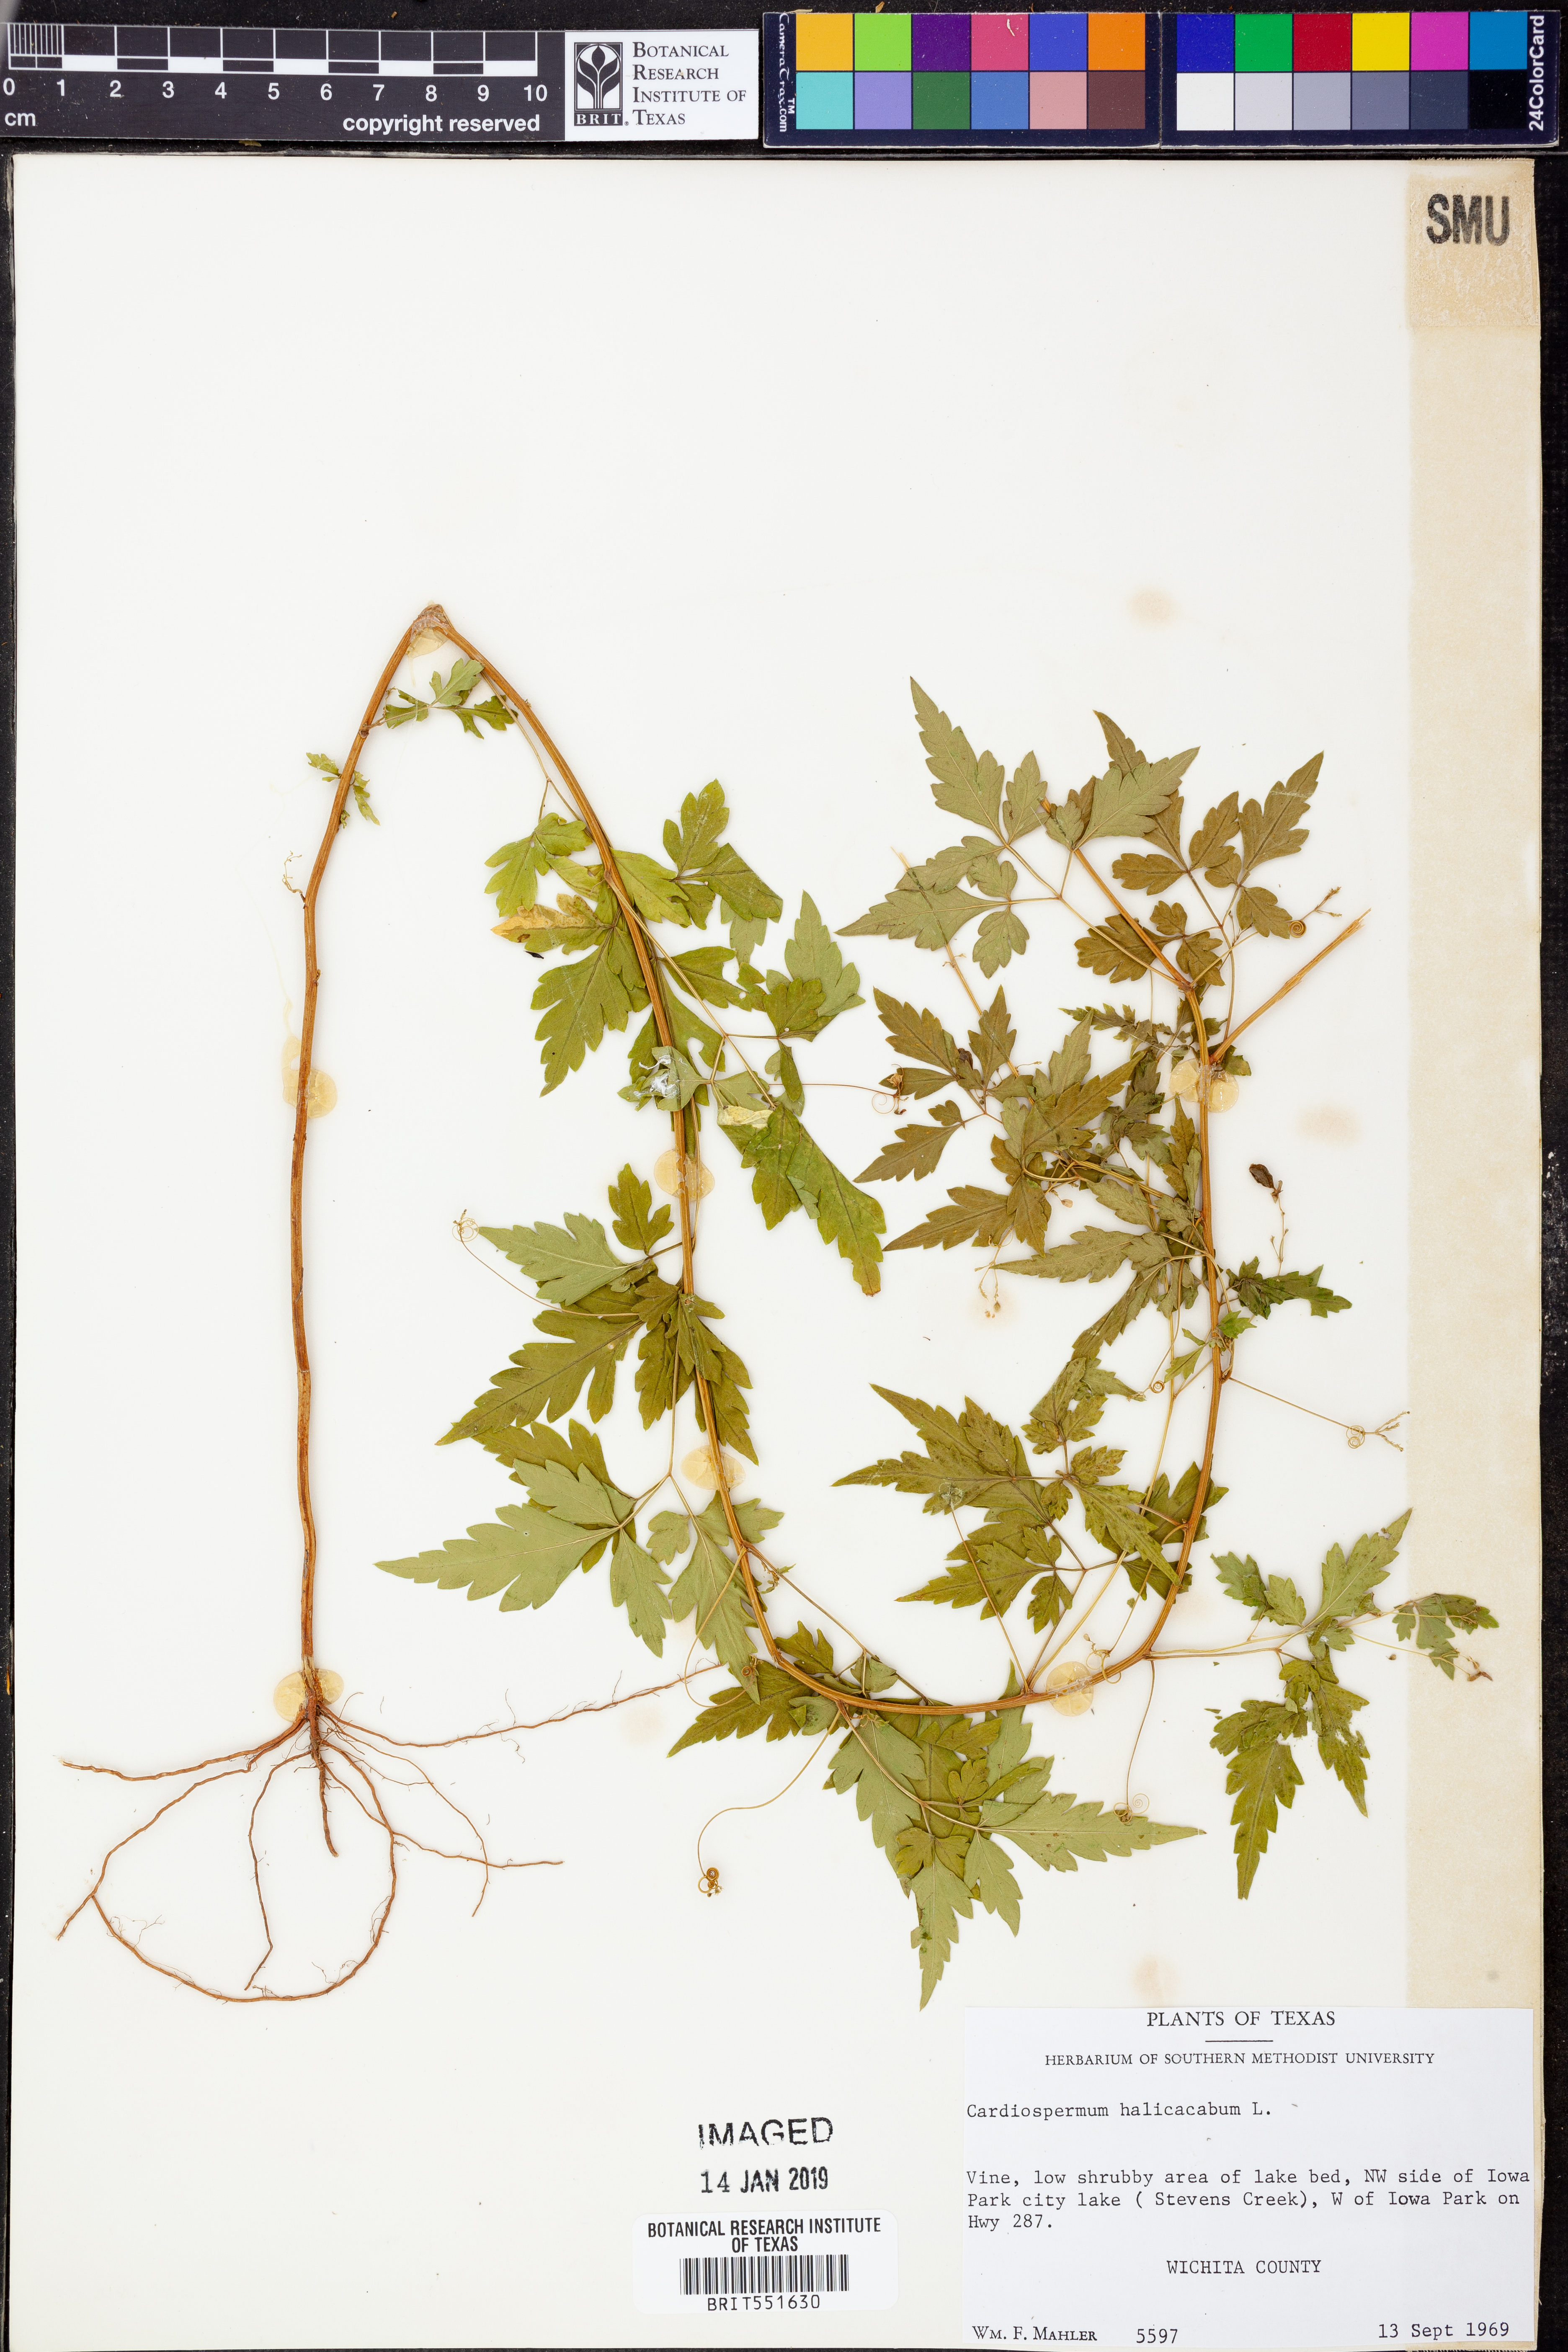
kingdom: Plantae
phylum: Tracheophyta
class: Magnoliopsida
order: Sapindales
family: Sapindaceae
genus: Cardiospermum
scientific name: Cardiospermum halicacabum
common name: Balloon vine
